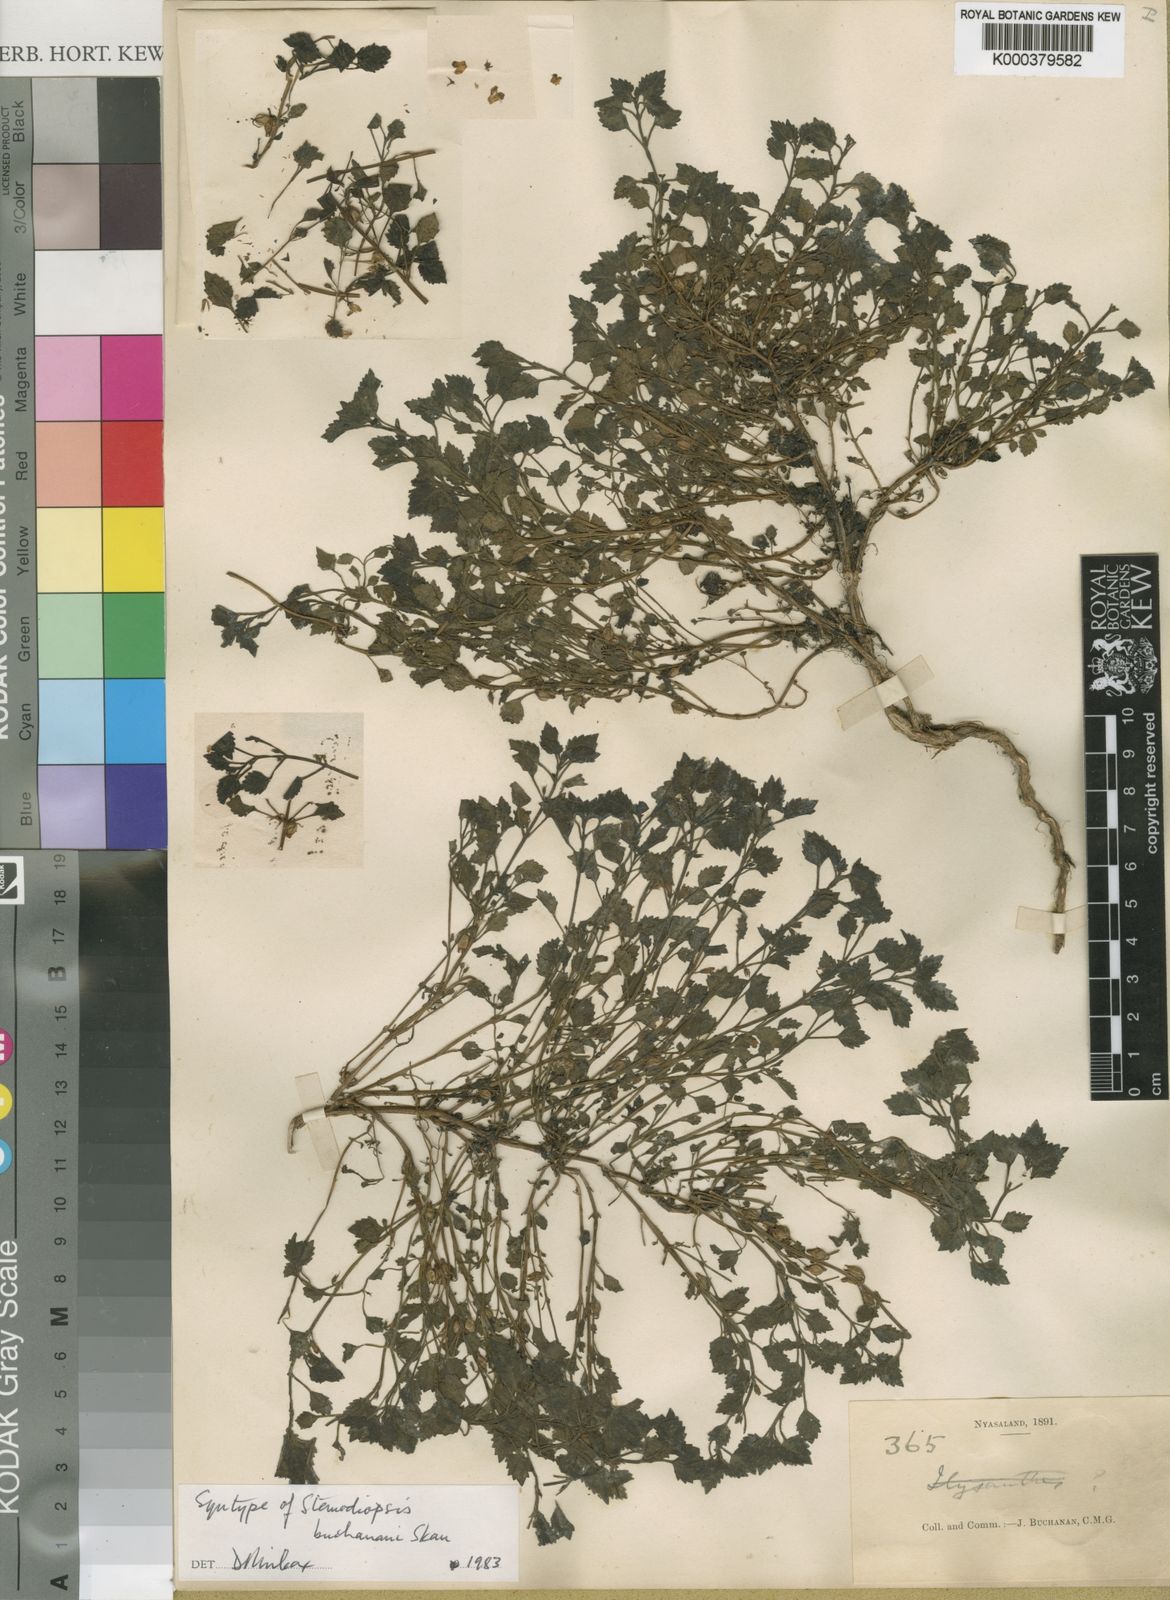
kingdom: Plantae
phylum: Tracheophyta
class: Magnoliopsida
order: Lamiales
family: Linderniaceae
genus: Stemodiopsis
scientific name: Stemodiopsis buchananii
